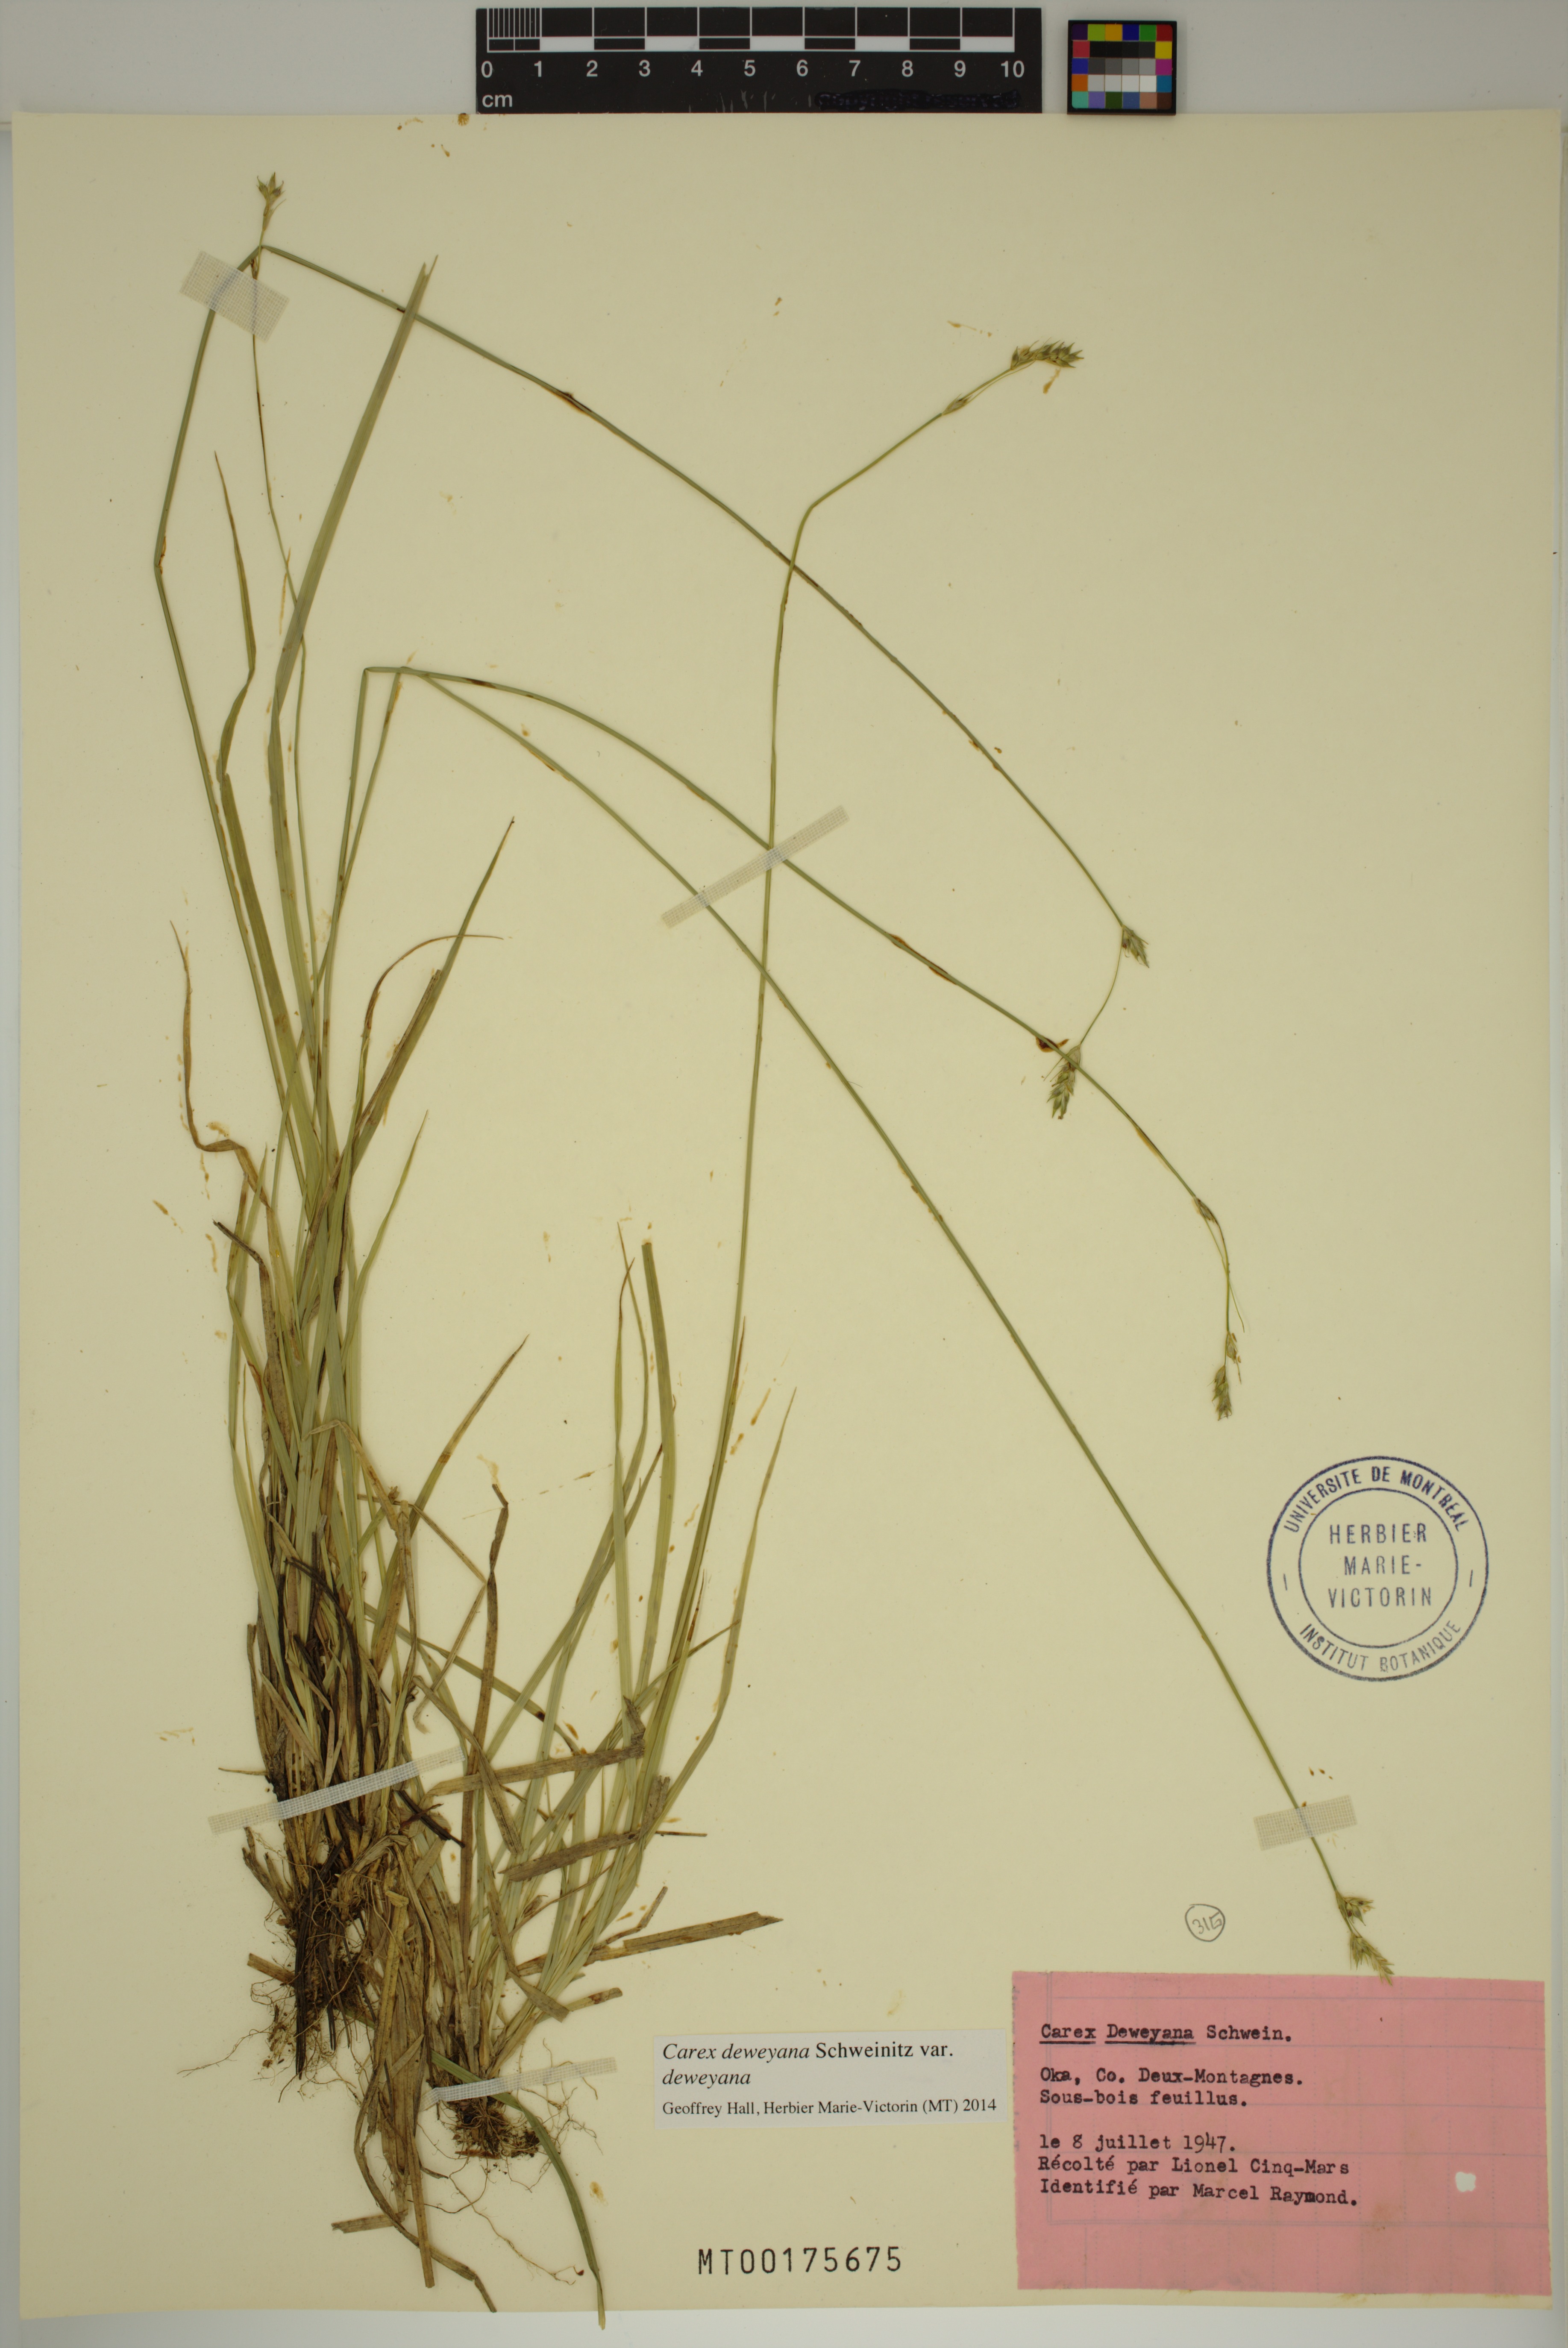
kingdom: Plantae
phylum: Tracheophyta
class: Liliopsida
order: Poales
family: Cyperaceae
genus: Carex
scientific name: Carex deweyana
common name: Dewey's sedge
